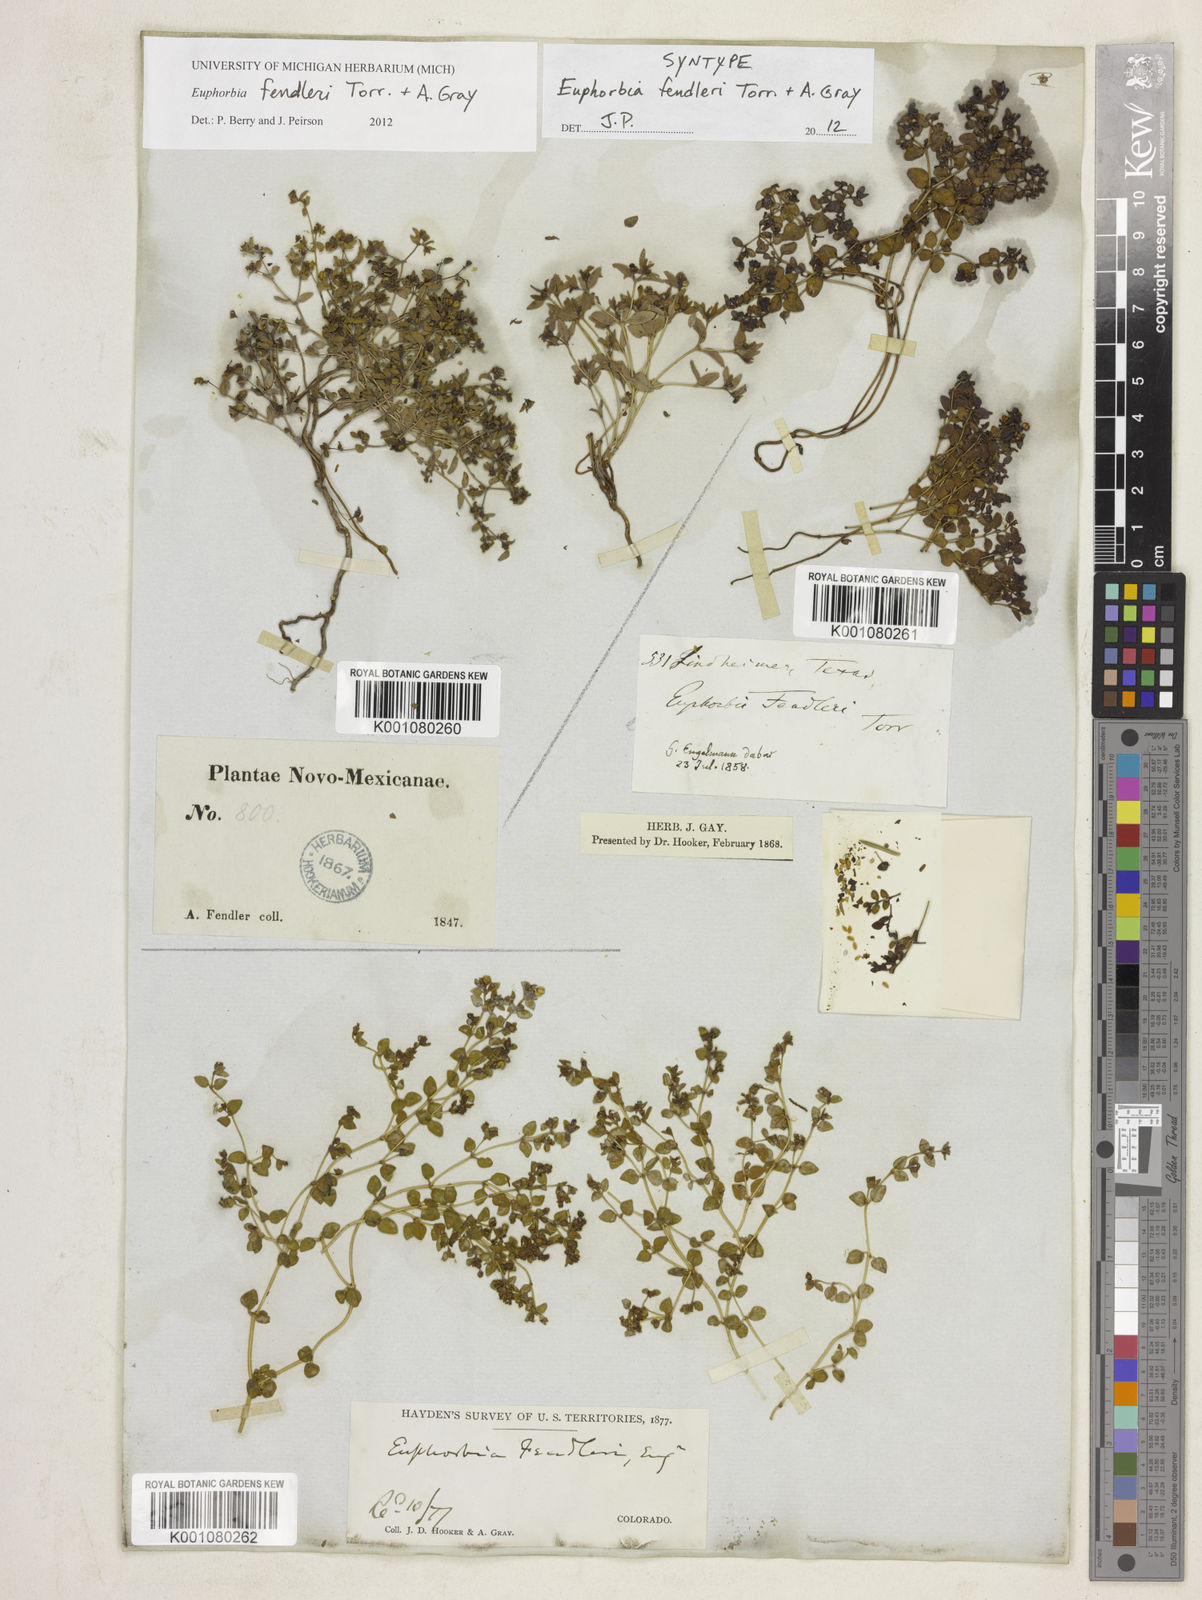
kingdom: Plantae
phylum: Tracheophyta
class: Magnoliopsida
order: Malpighiales
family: Euphorbiaceae
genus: Euphorbia
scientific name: Euphorbia fendleri
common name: Fendler's euphorbia
